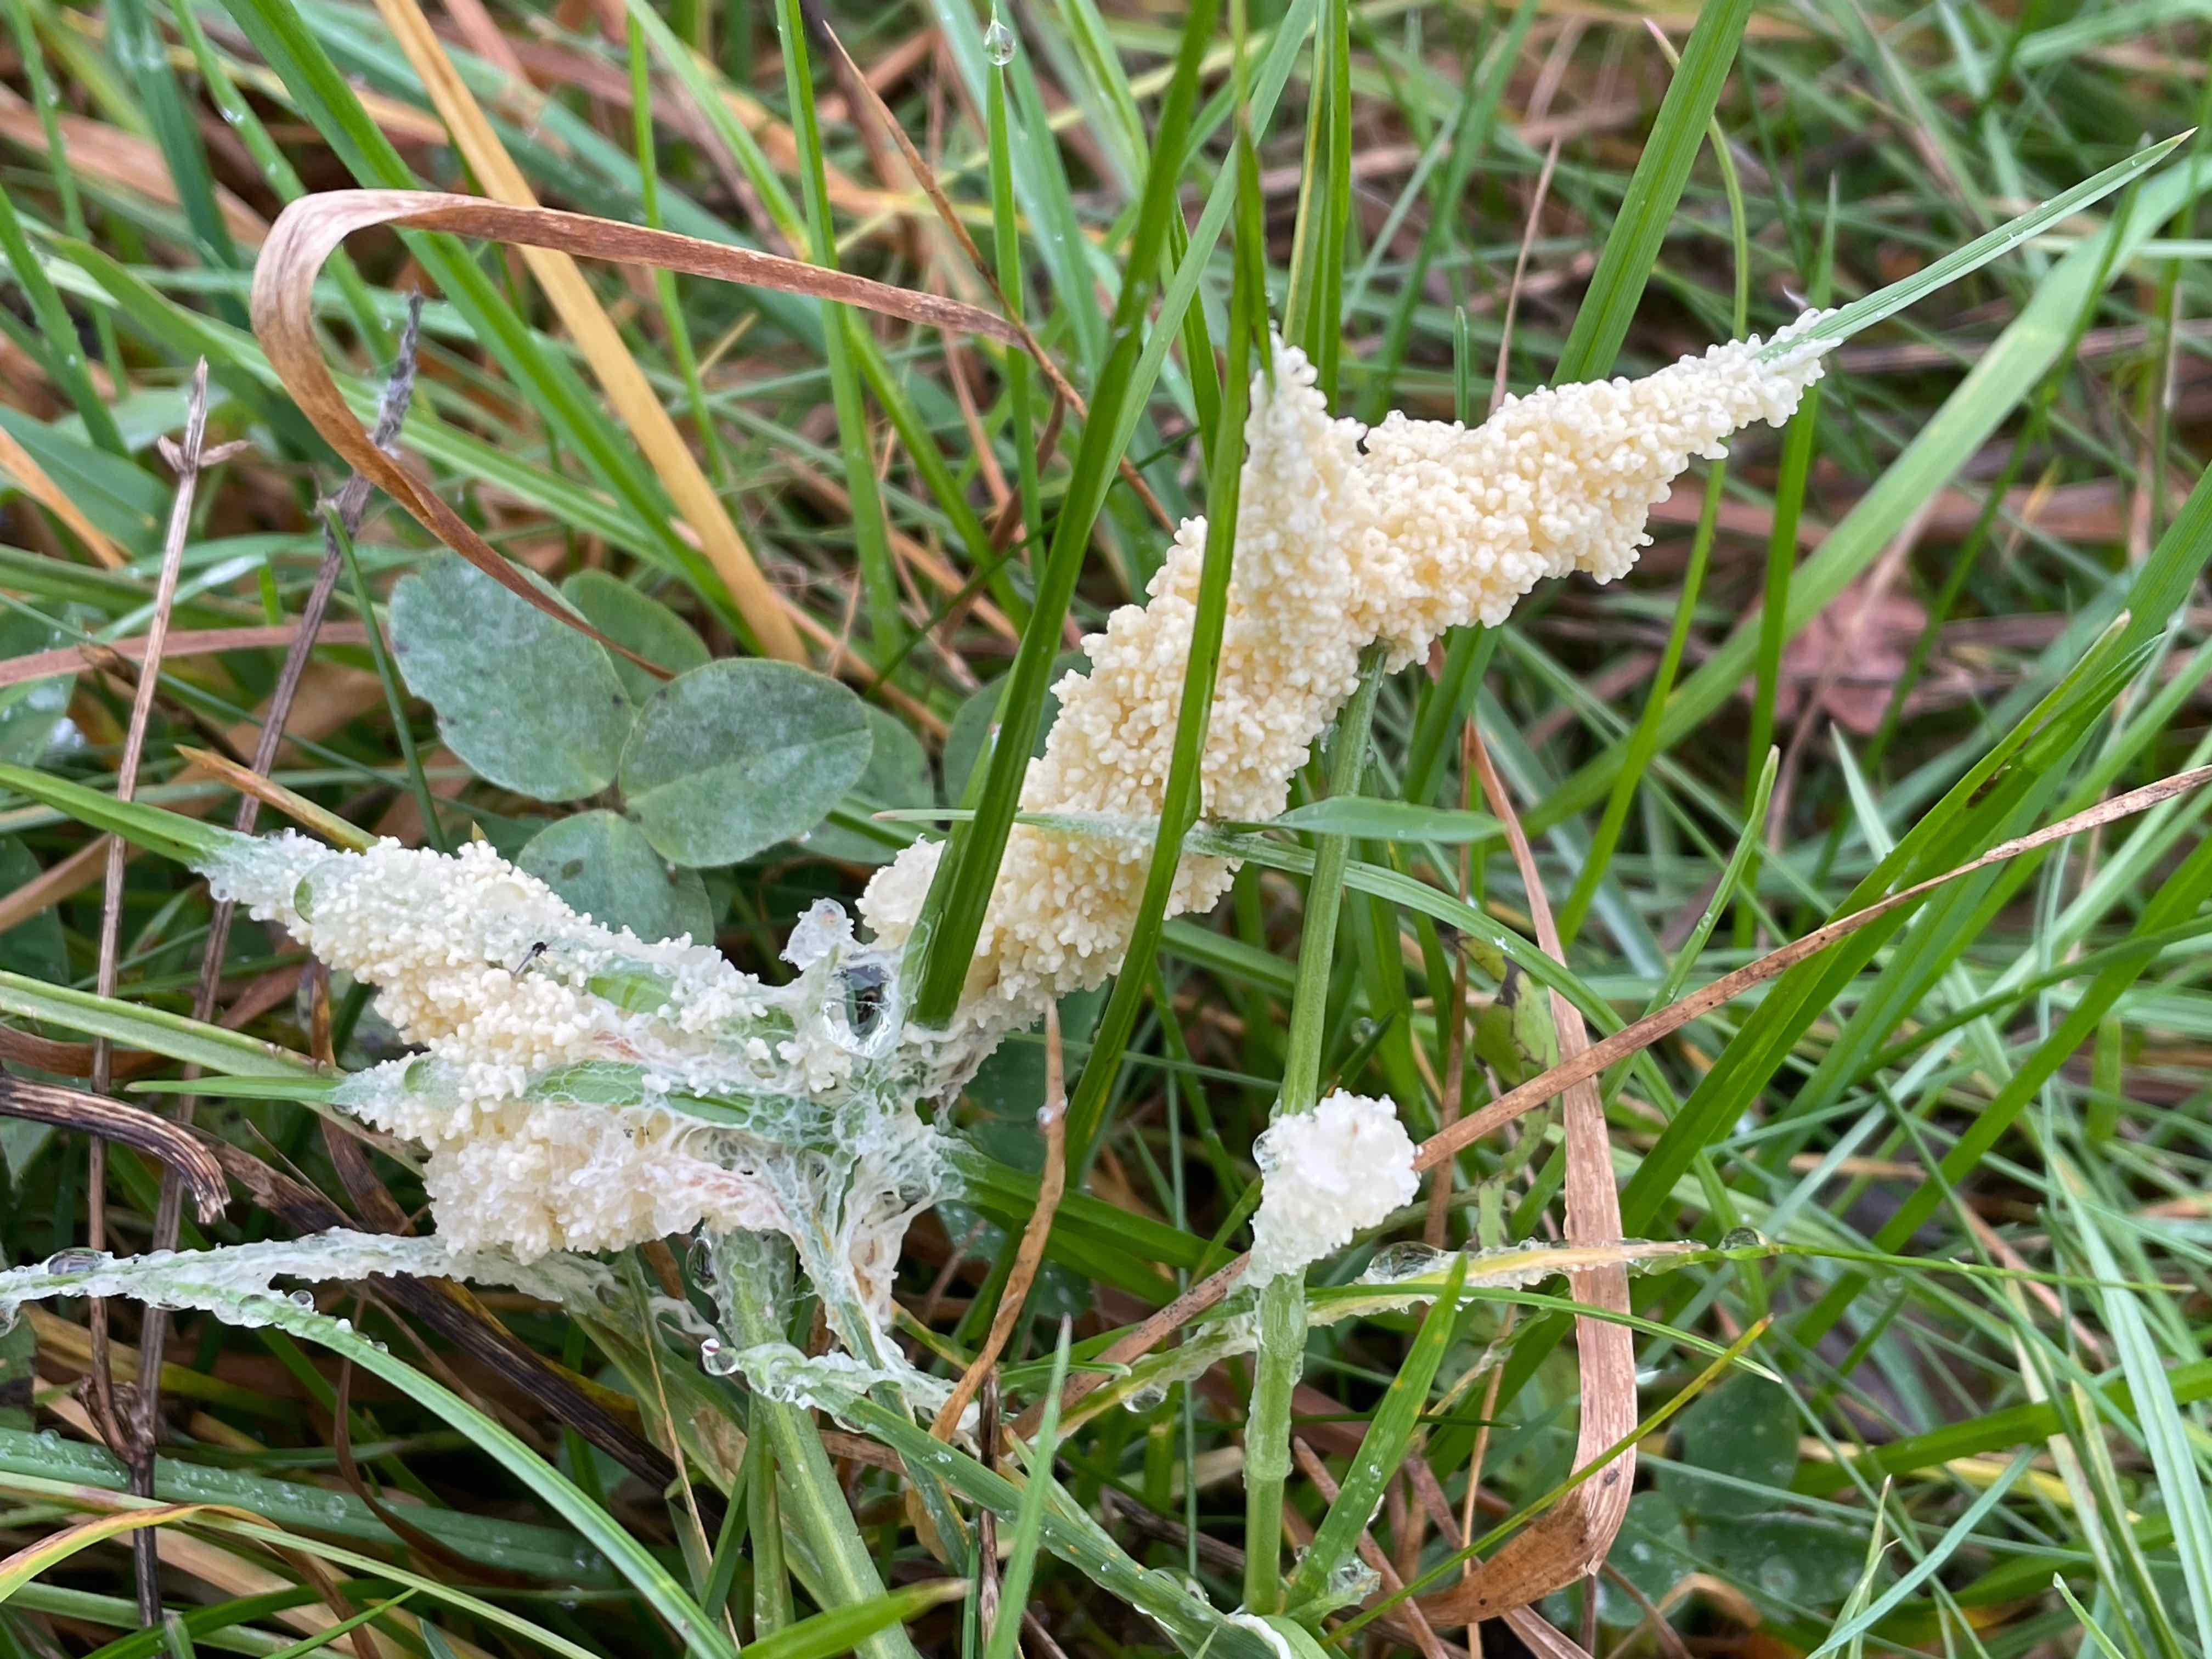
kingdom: Protozoa
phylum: Mycetozoa
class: Myxomycetes
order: Physarales
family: Physaraceae
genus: Didymium
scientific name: Didymium
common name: urteskum
